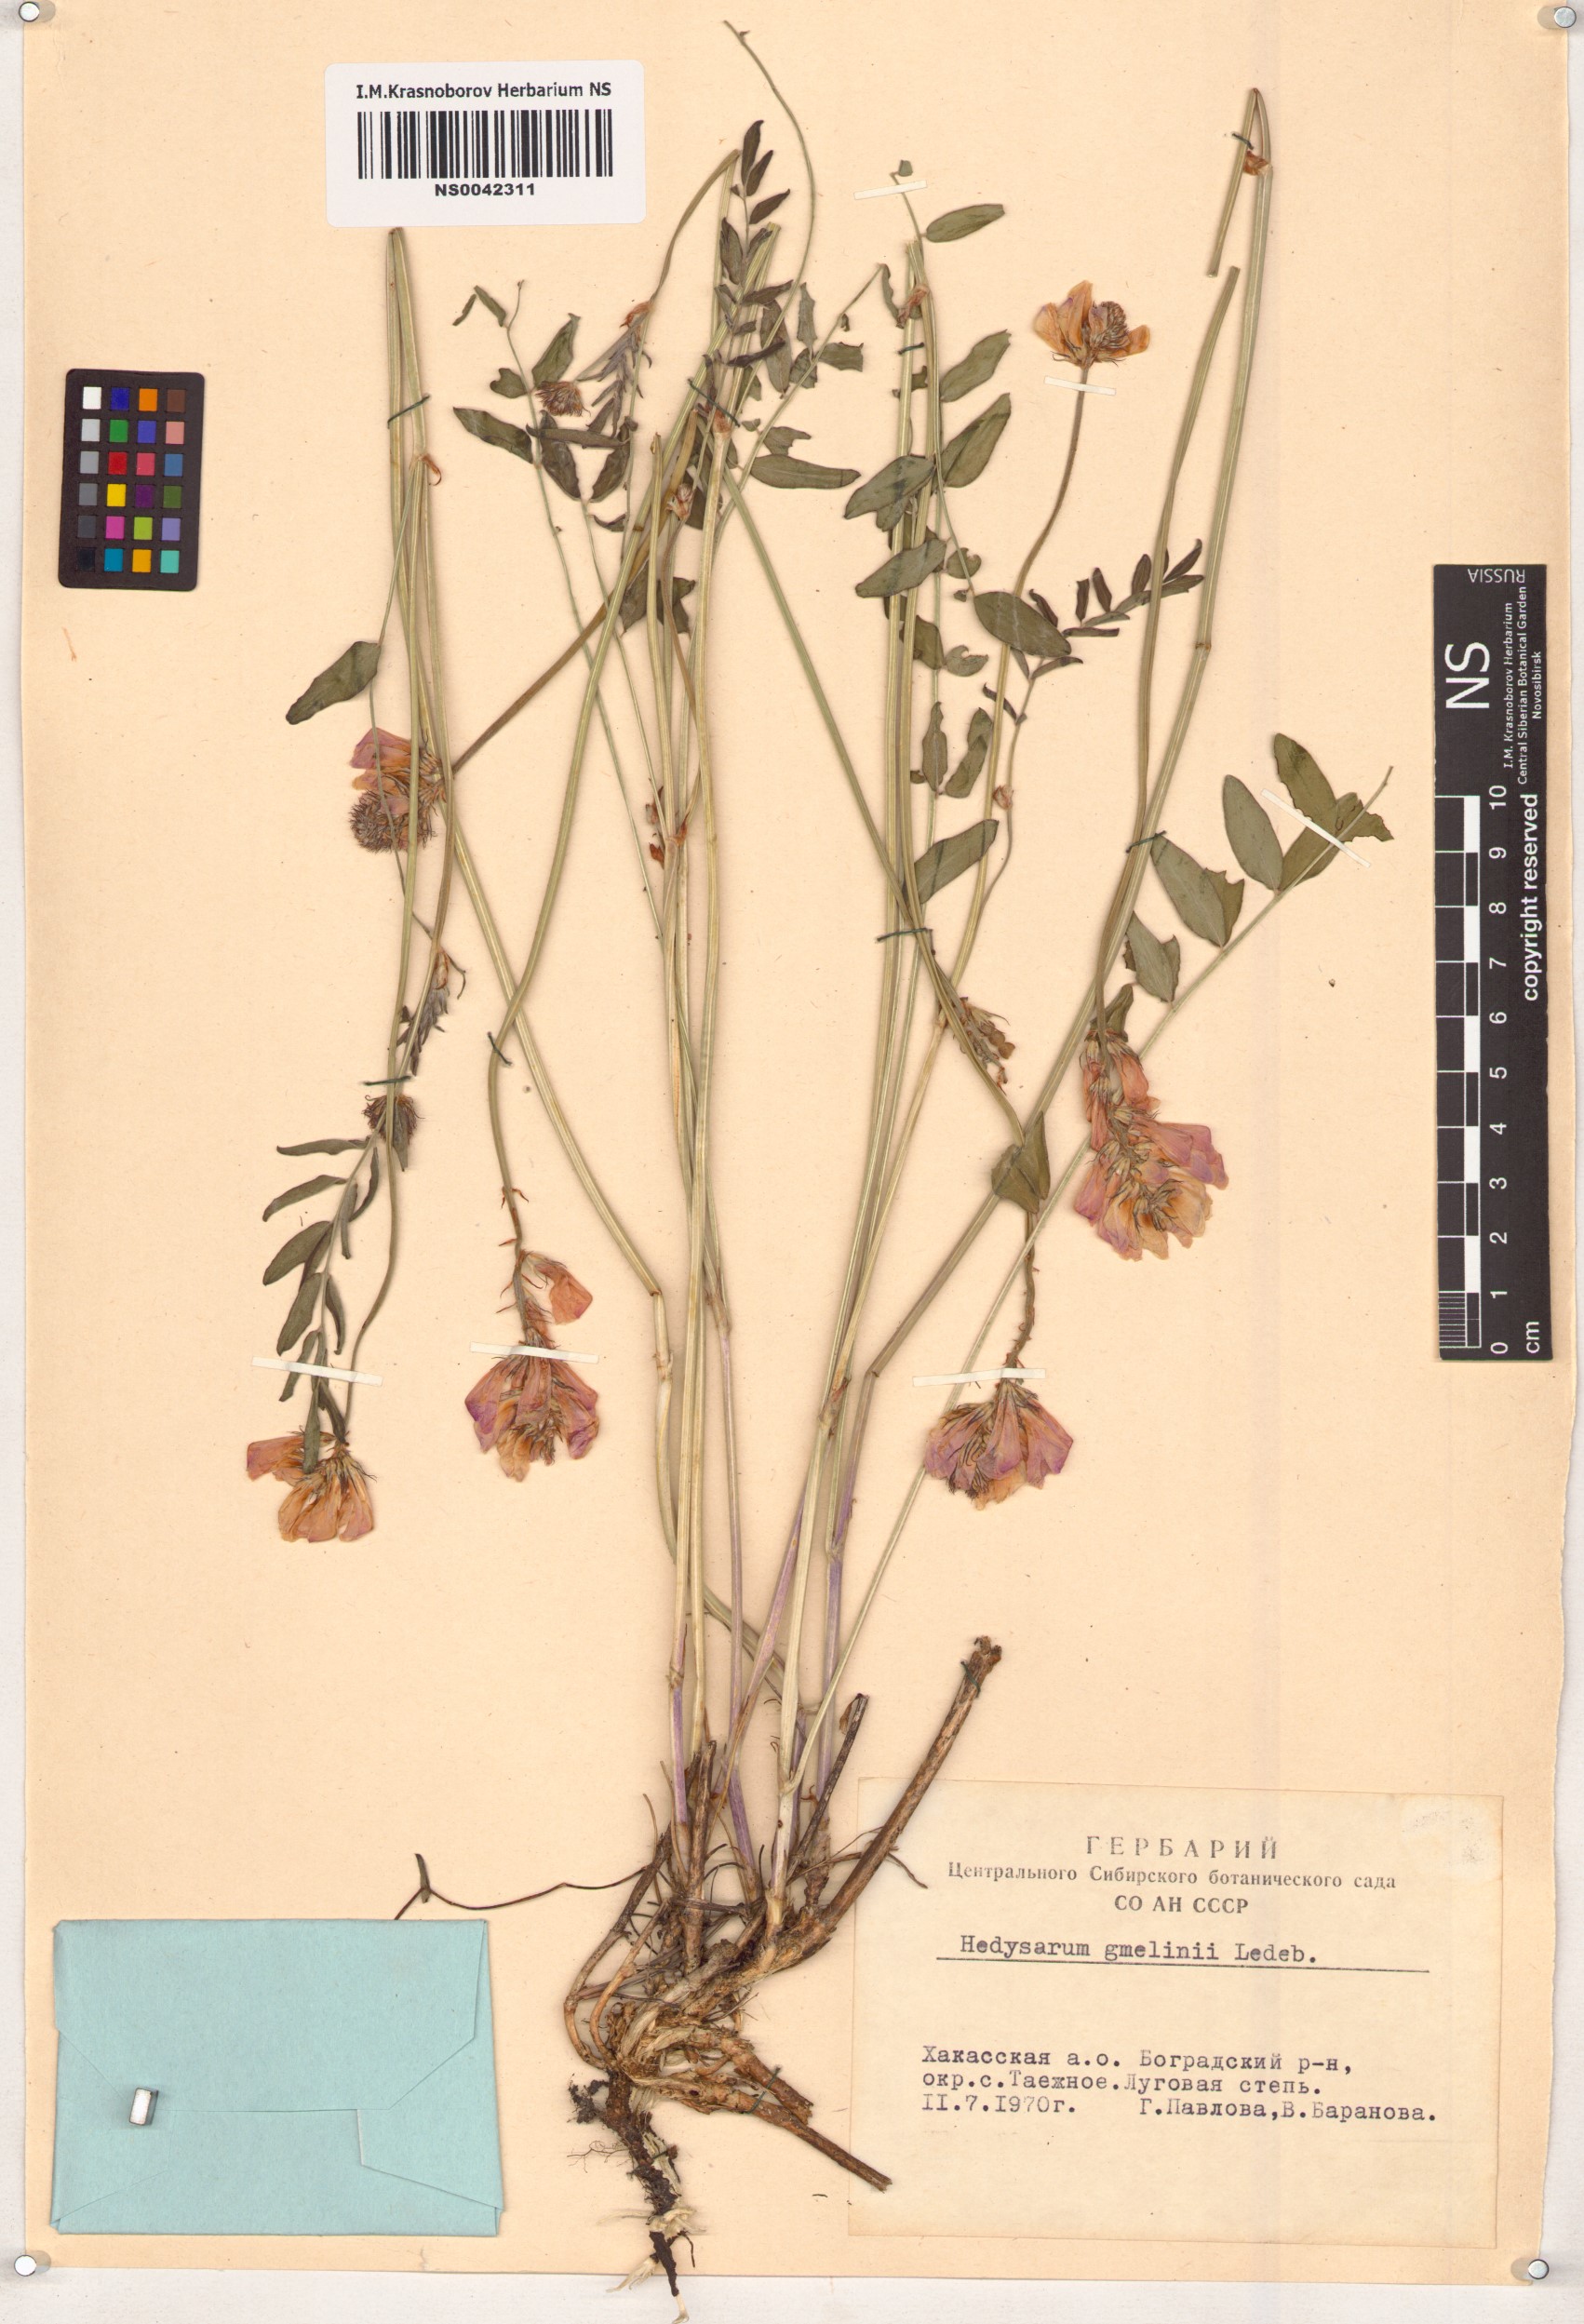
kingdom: Plantae
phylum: Tracheophyta
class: Magnoliopsida
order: Fabales
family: Fabaceae
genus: Hedysarum
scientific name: Hedysarum gmelinii
